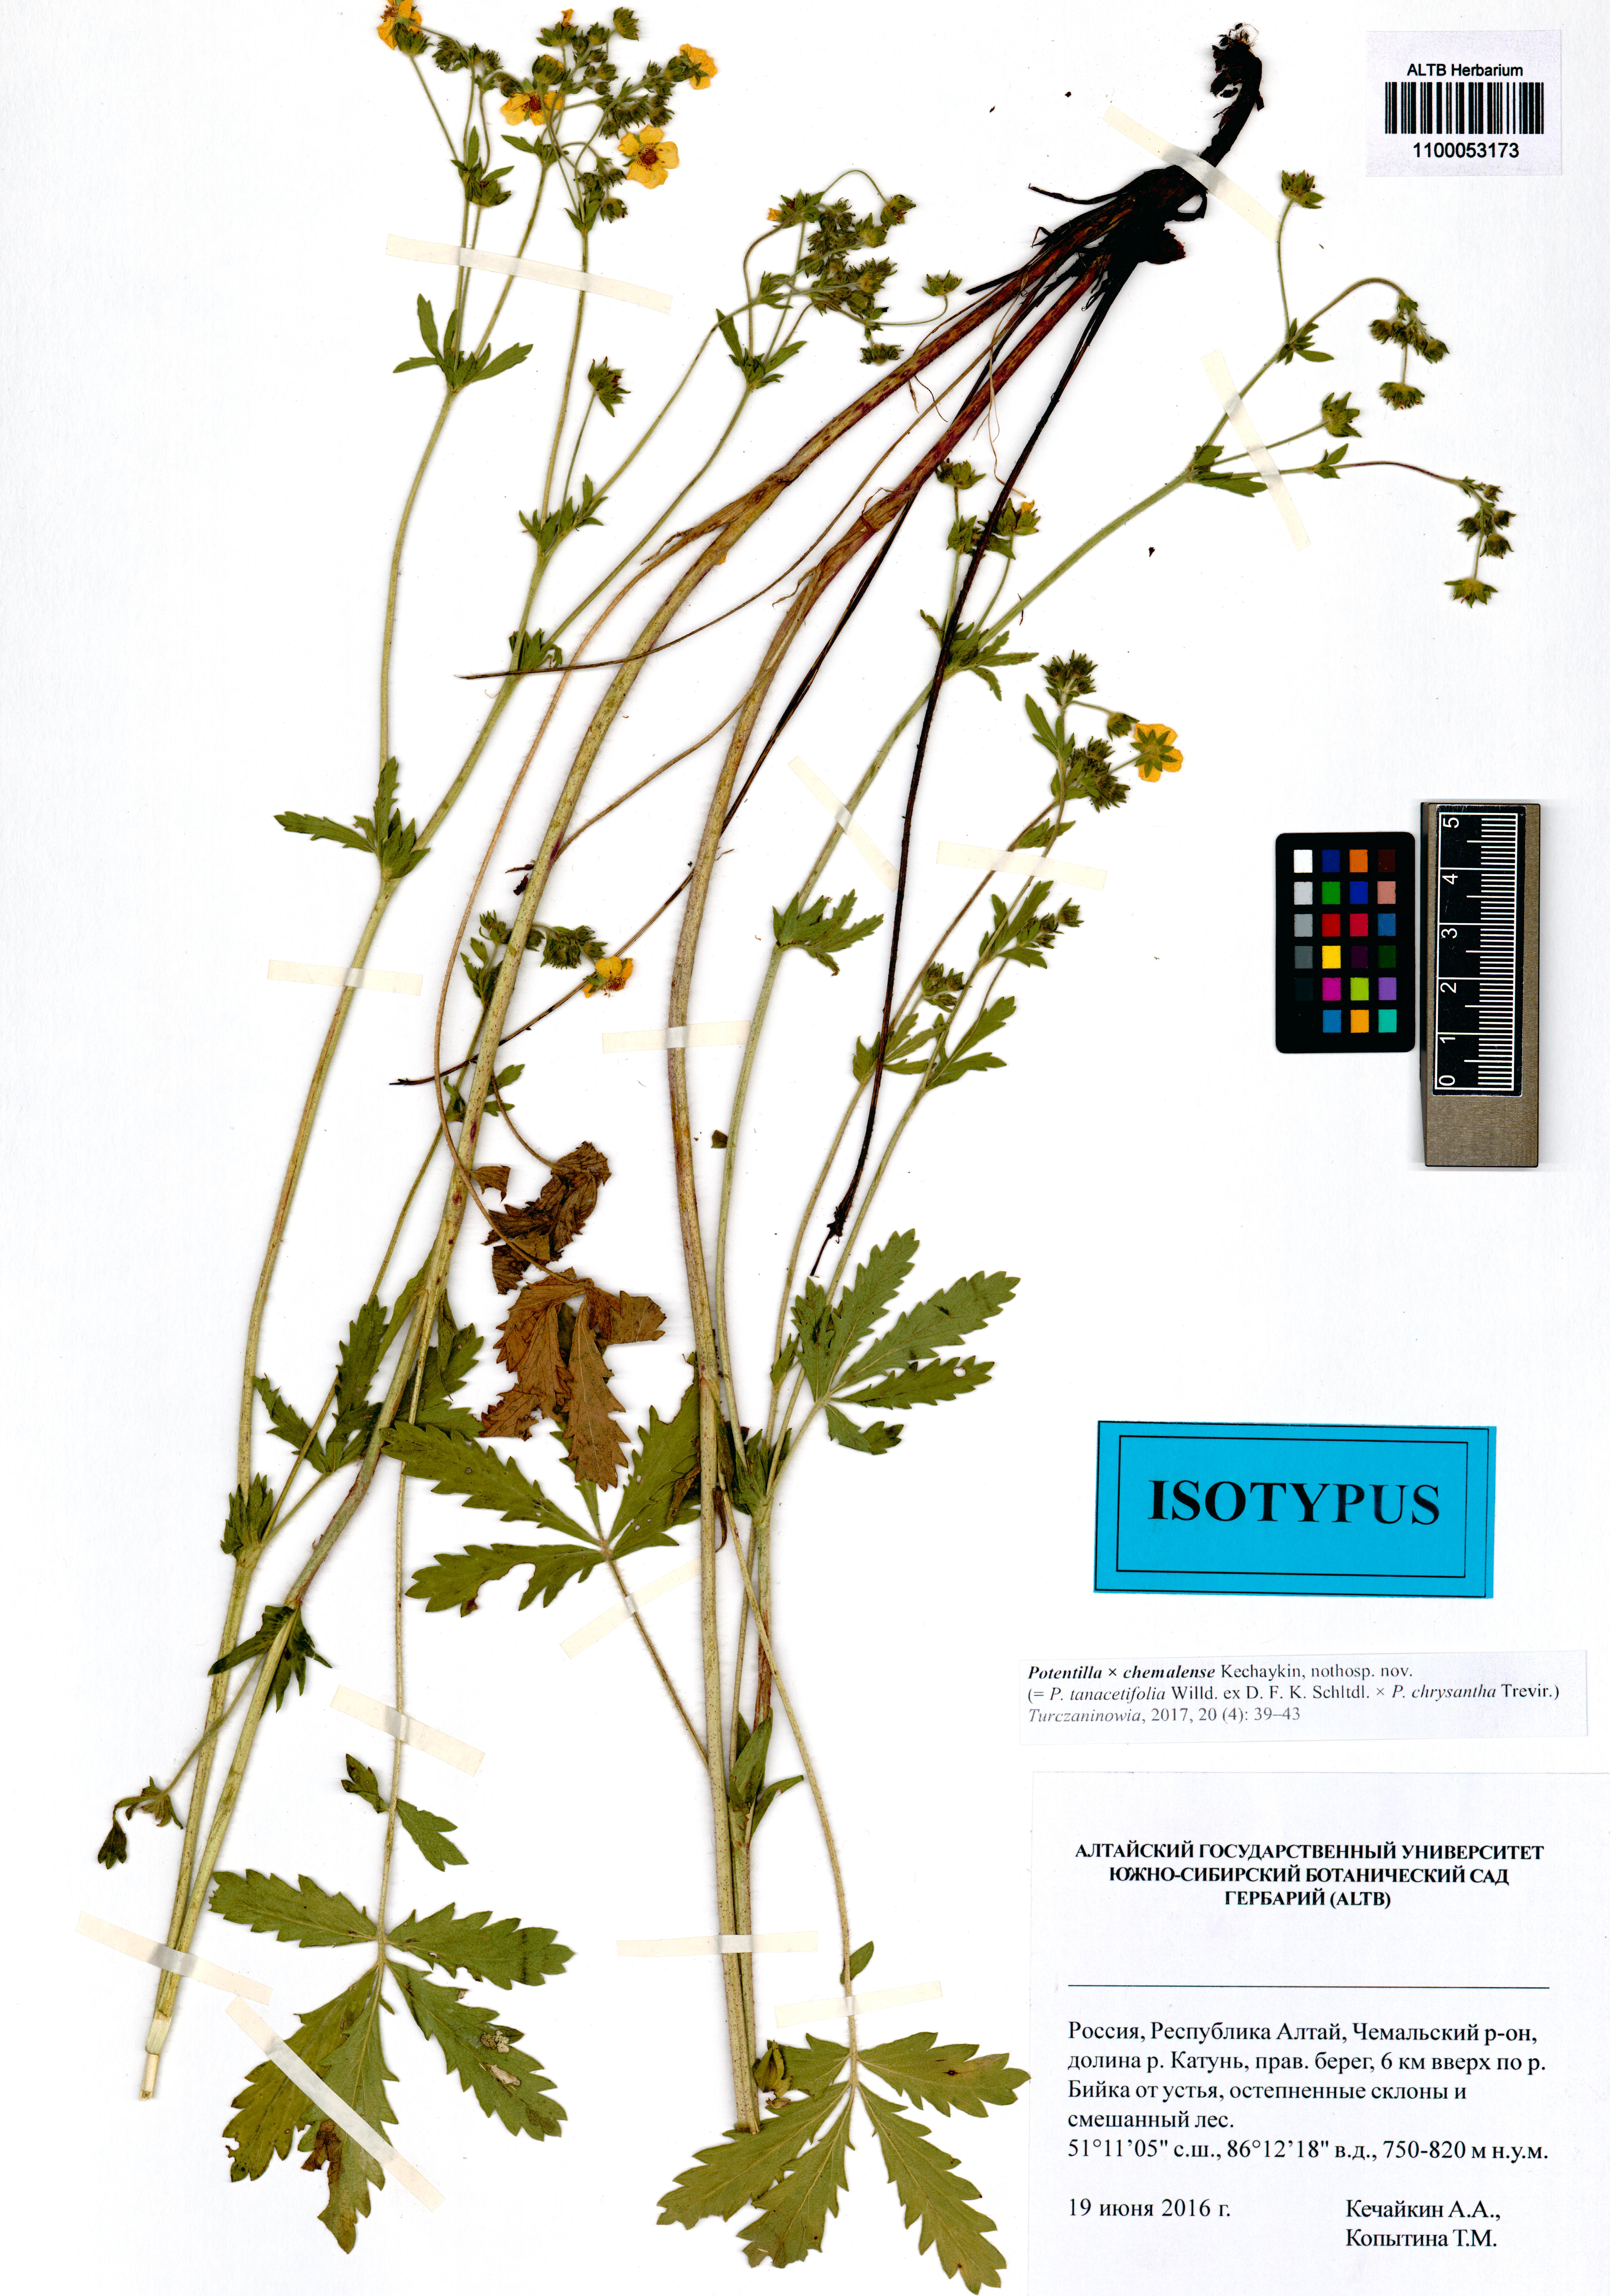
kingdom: Plantae
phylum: Tracheophyta
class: Magnoliopsida
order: Rosales
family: Rosaceae
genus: Potentilla
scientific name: Potentilla chemalensis
